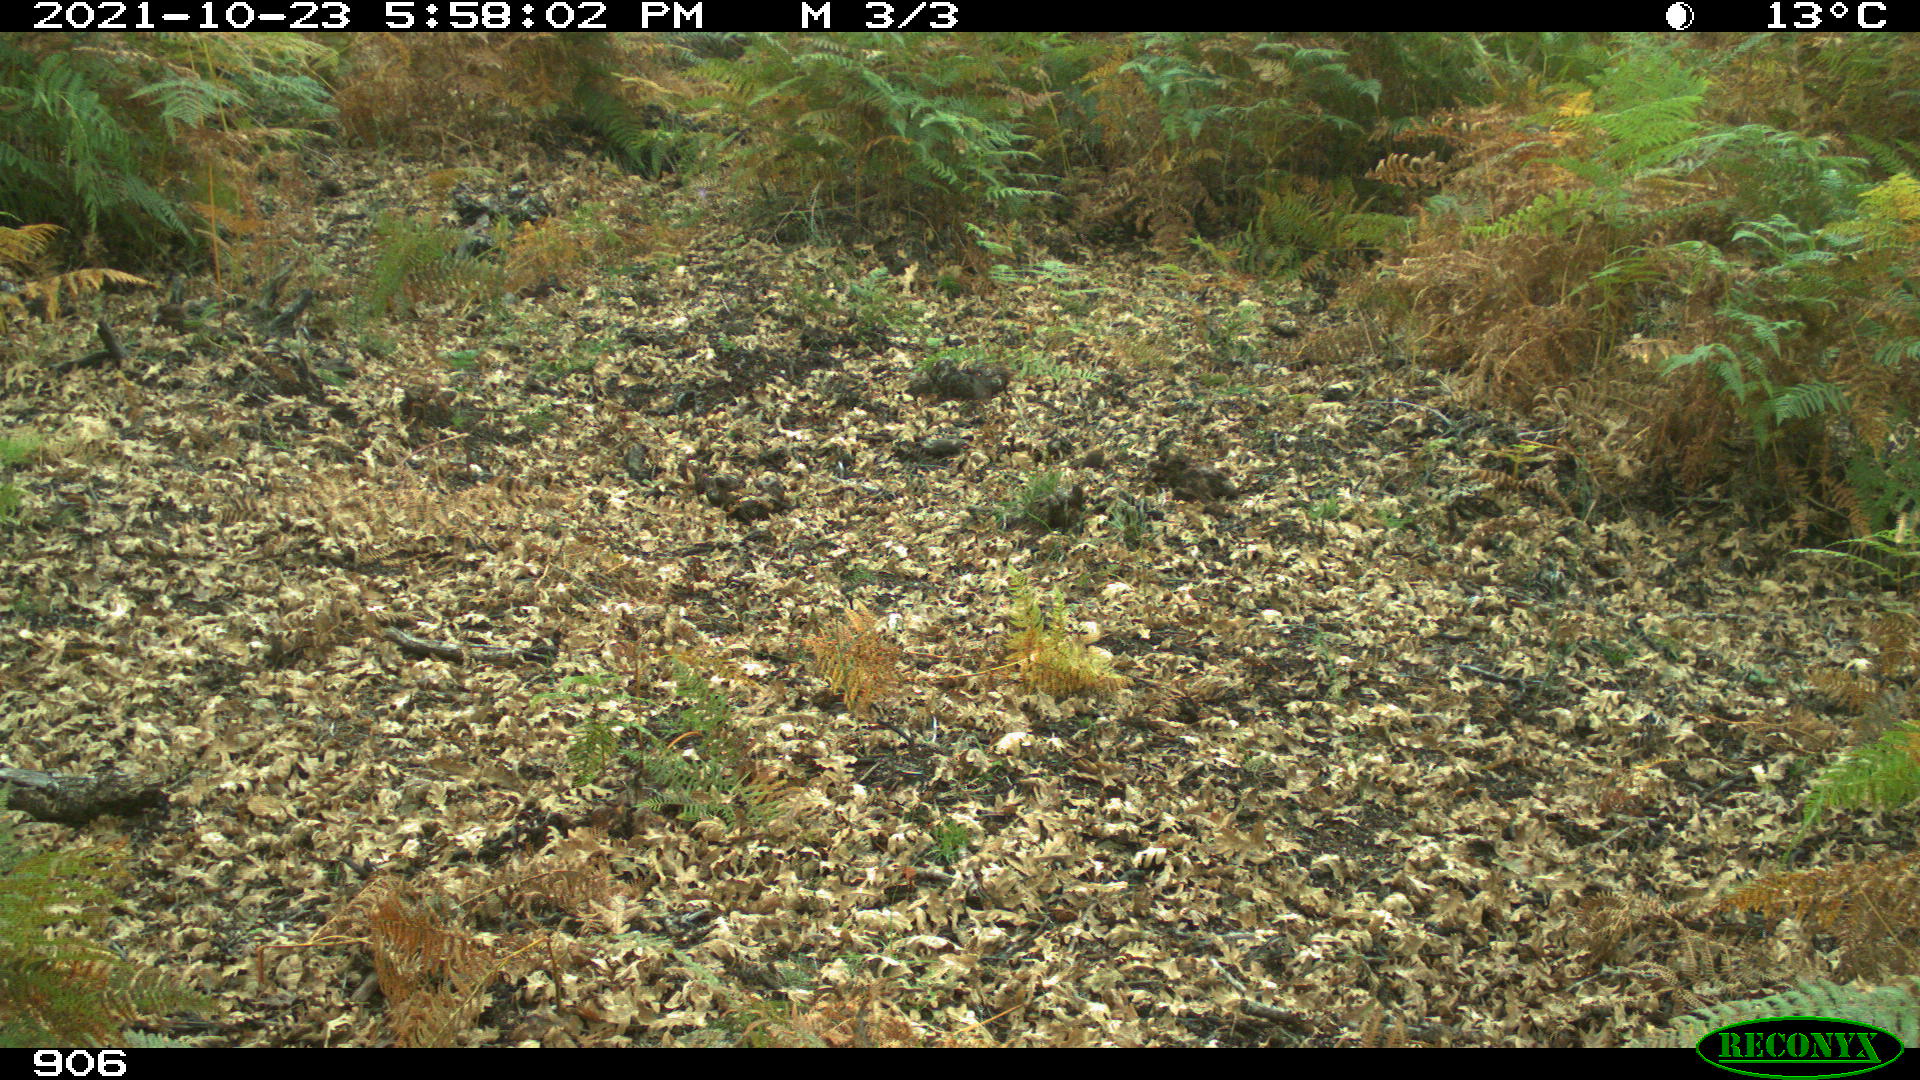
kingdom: Animalia
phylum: Chordata
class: Mammalia
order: Artiodactyla
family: Cervidae
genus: Capreolus
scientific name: Capreolus capreolus
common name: Western roe deer
